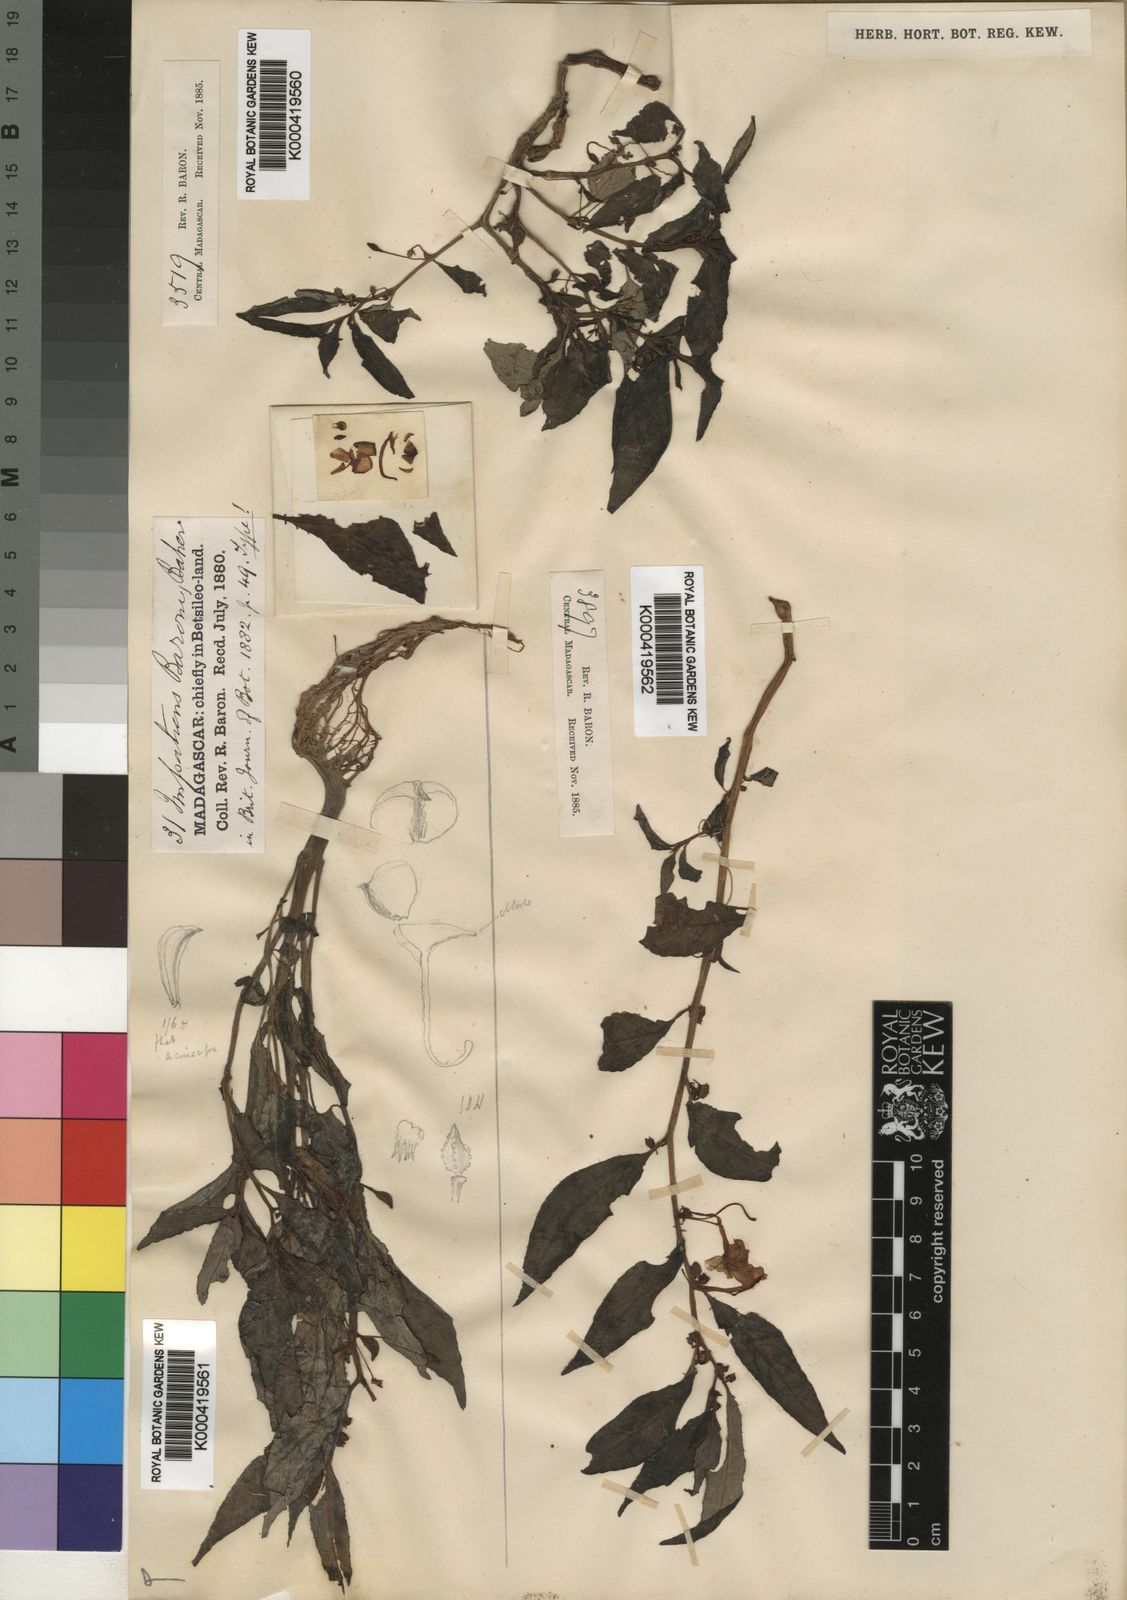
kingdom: Plantae
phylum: Tracheophyta
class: Magnoliopsida
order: Ericales
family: Balsaminaceae
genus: Impatiens
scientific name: Impatiens baronii
